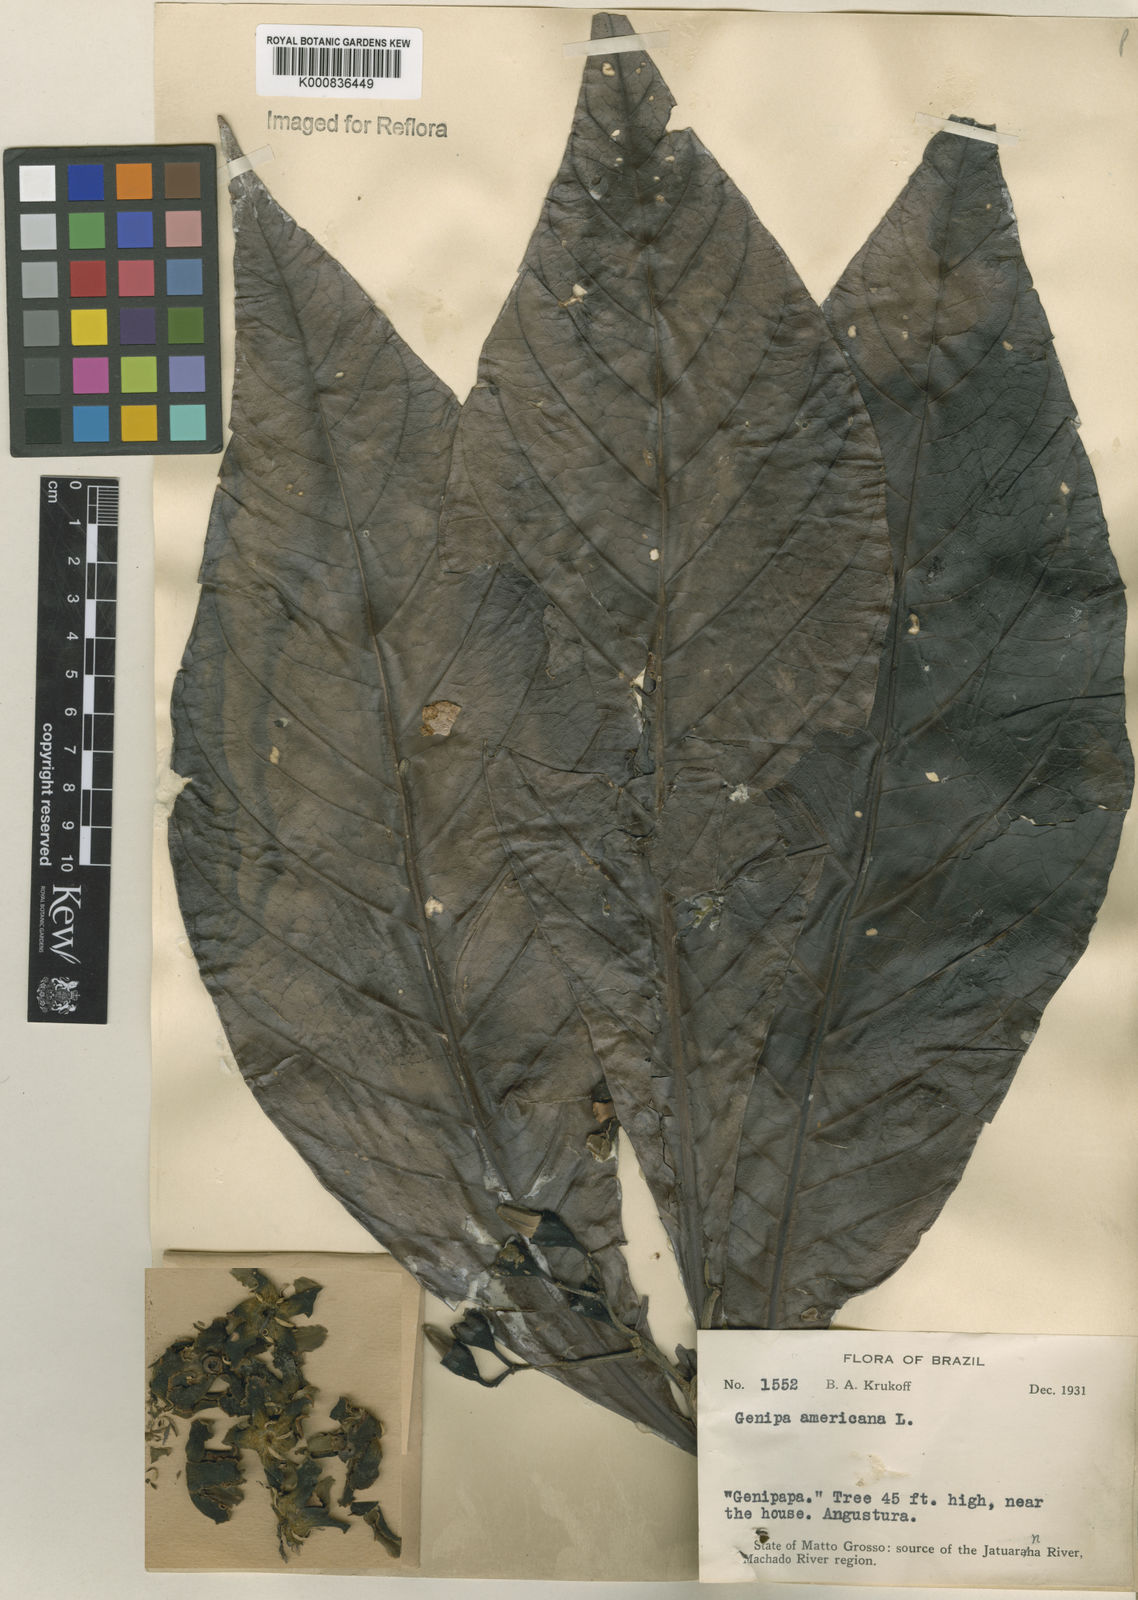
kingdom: Plantae
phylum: Tracheophyta
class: Magnoliopsida
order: Gentianales
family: Rubiaceae
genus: Genipa
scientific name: Genipa americana
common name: Genipap
